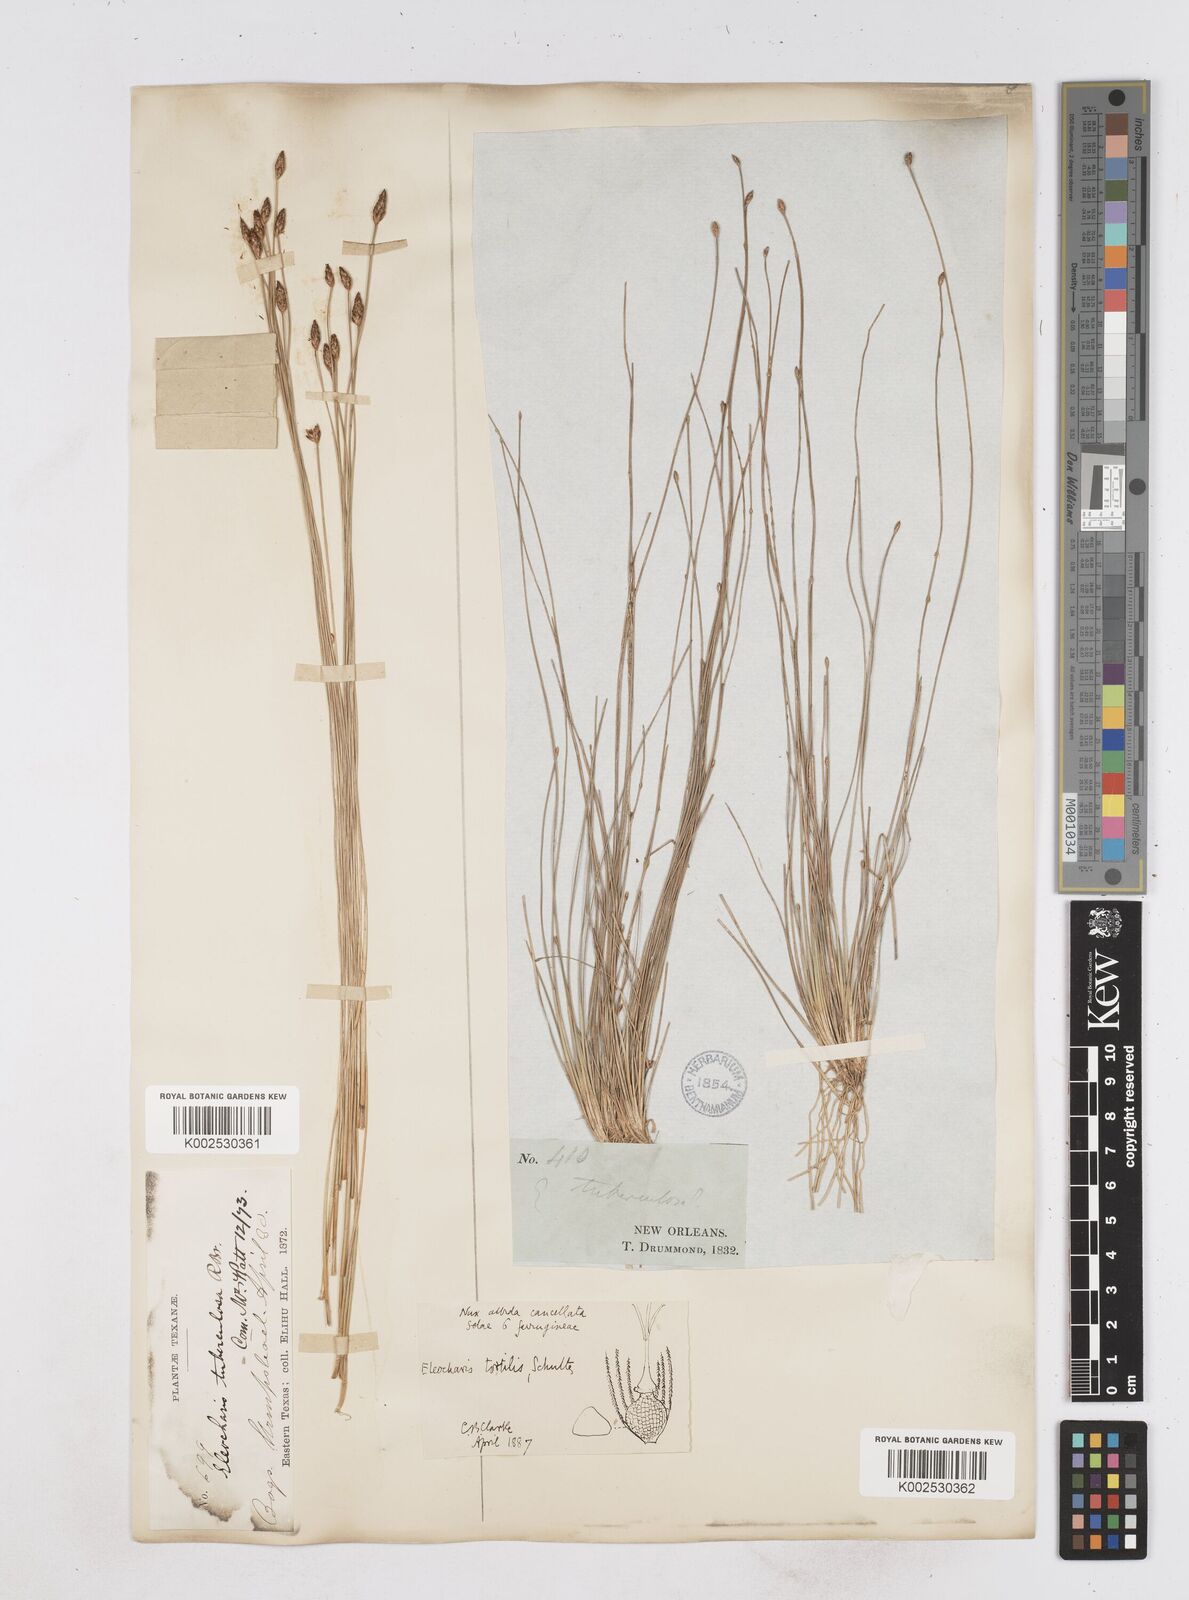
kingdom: Plantae
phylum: Tracheophyta
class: Liliopsida
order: Poales
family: Cyperaceae
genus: Eleocharis
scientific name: Eleocharis tuberculosa
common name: Cone-cup spikerush
